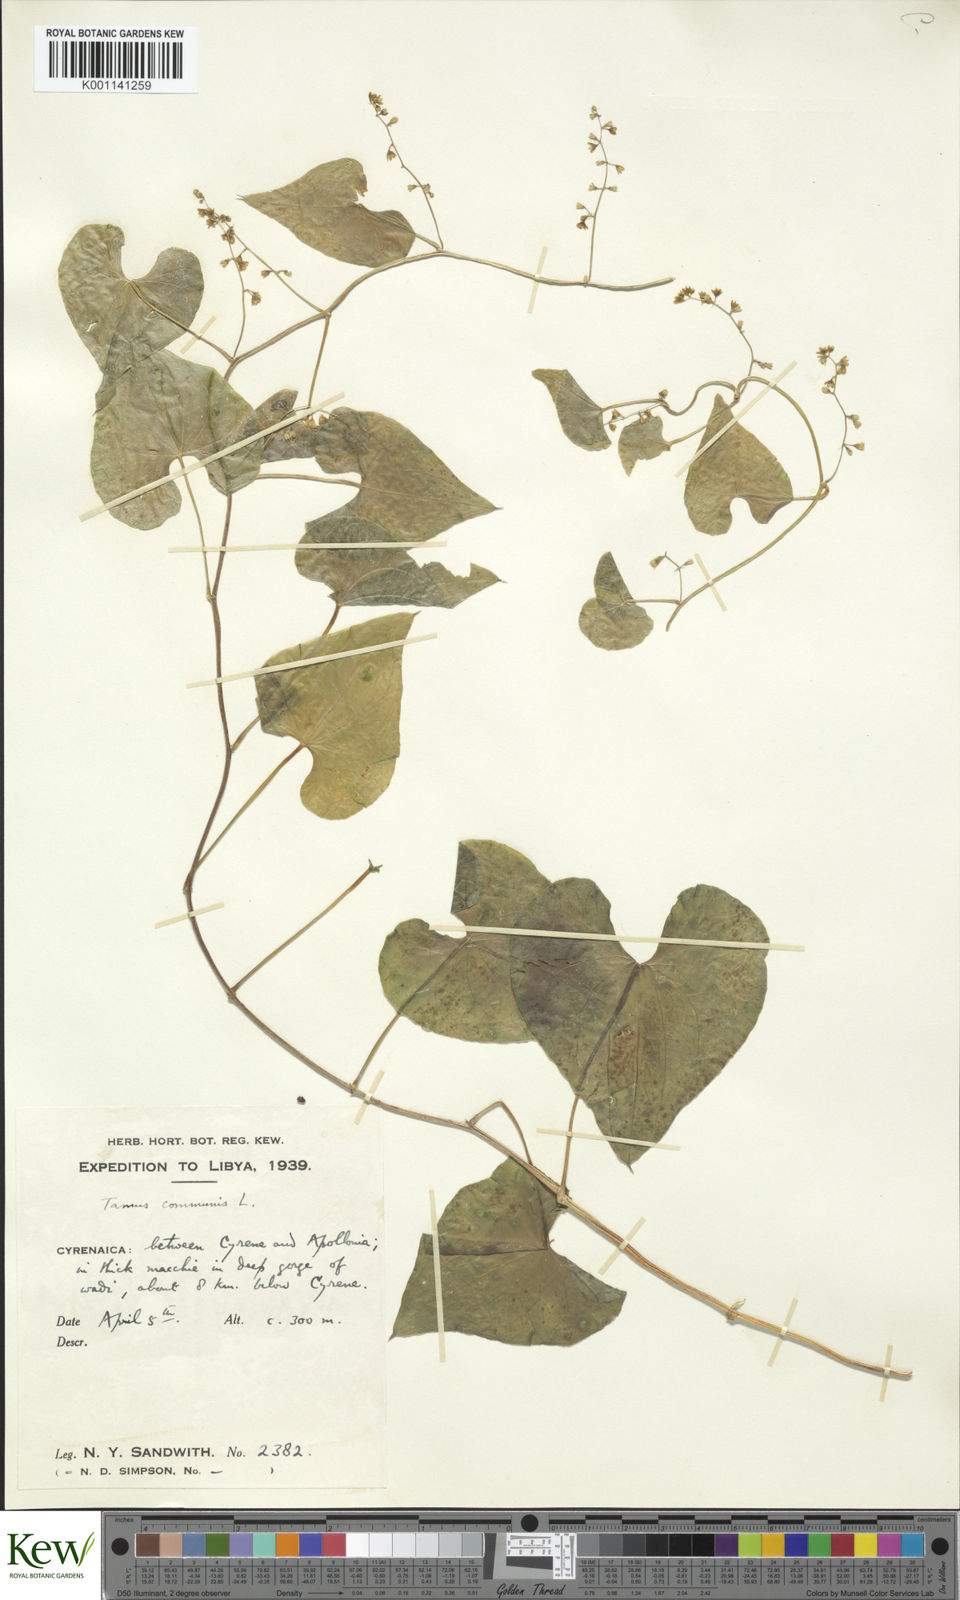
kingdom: Plantae
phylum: Tracheophyta
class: Liliopsida
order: Dioscoreales
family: Dioscoreaceae
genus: Dioscorea
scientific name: Dioscorea communis
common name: Black-bindweed
